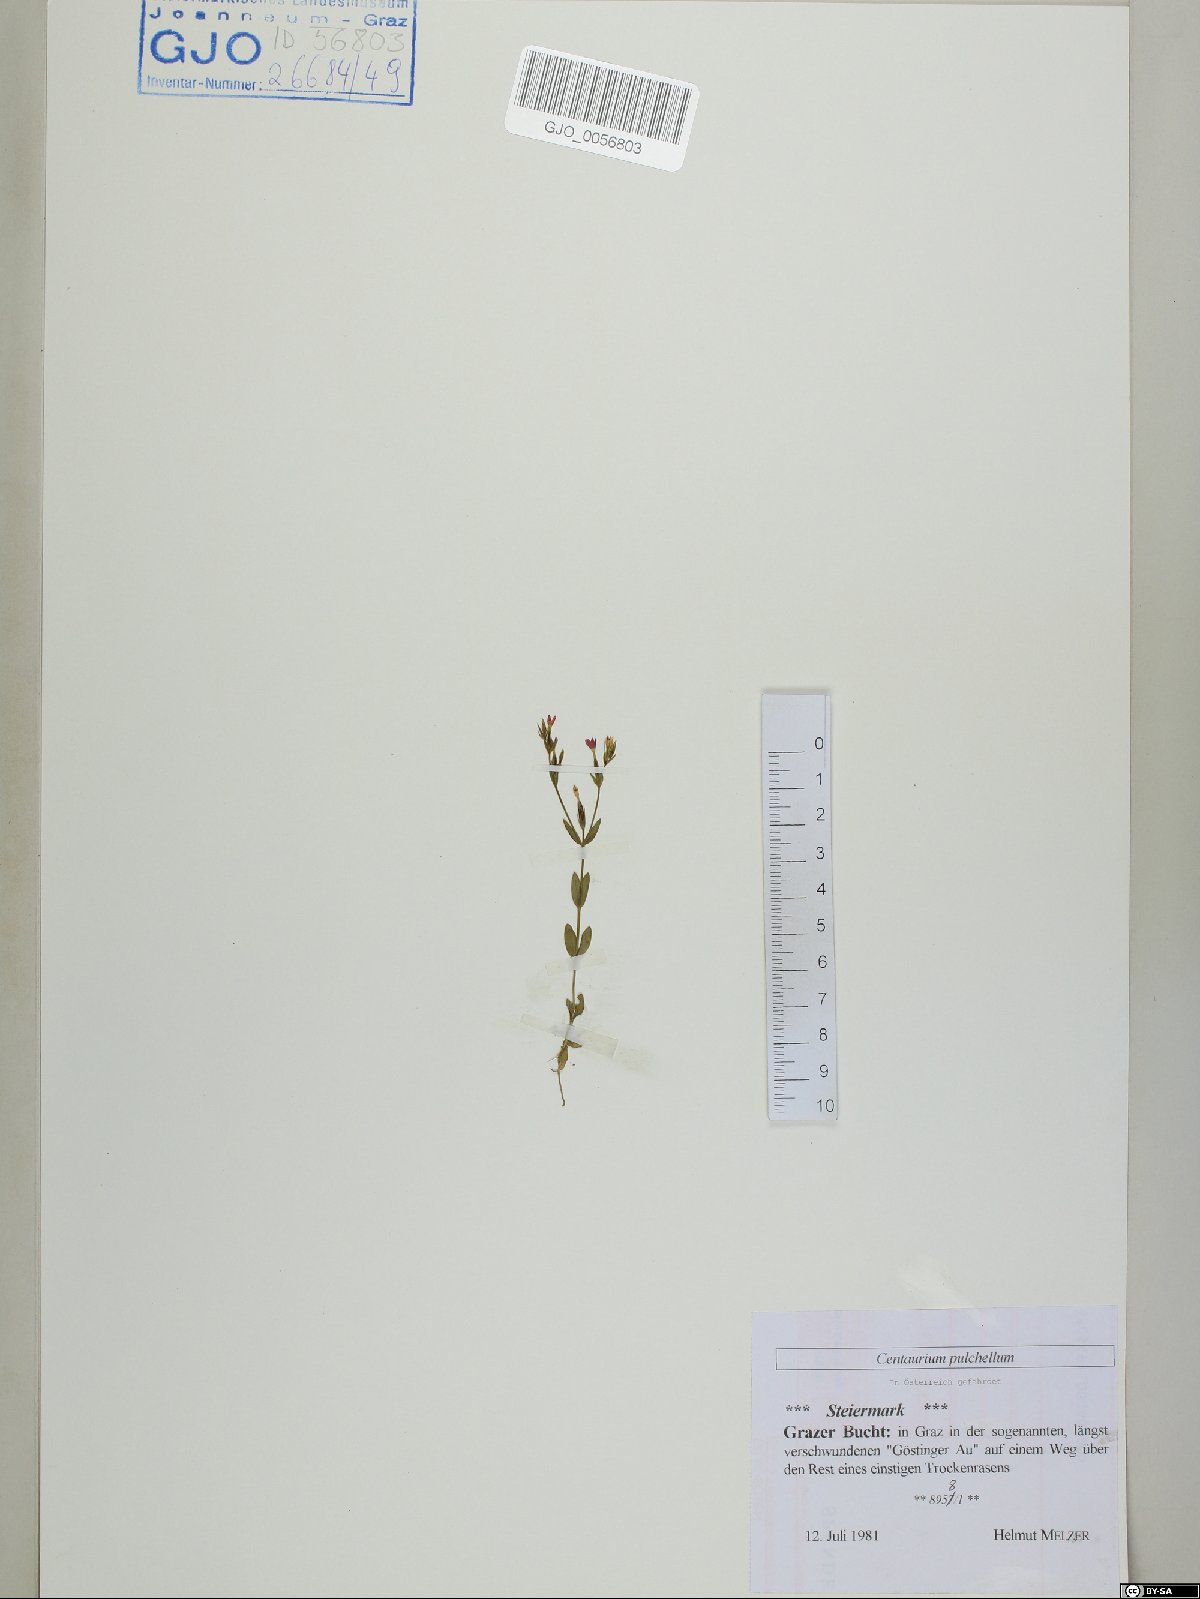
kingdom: Plantae
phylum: Tracheophyta
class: Magnoliopsida
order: Gentianales
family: Gentianaceae
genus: Centaurium
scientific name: Centaurium pulchellum
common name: Lesser centaury
